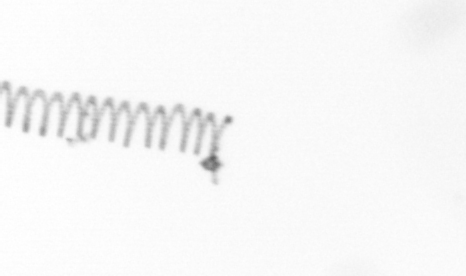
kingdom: Chromista
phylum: Ochrophyta
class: Bacillariophyceae
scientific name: Bacillariophyceae
